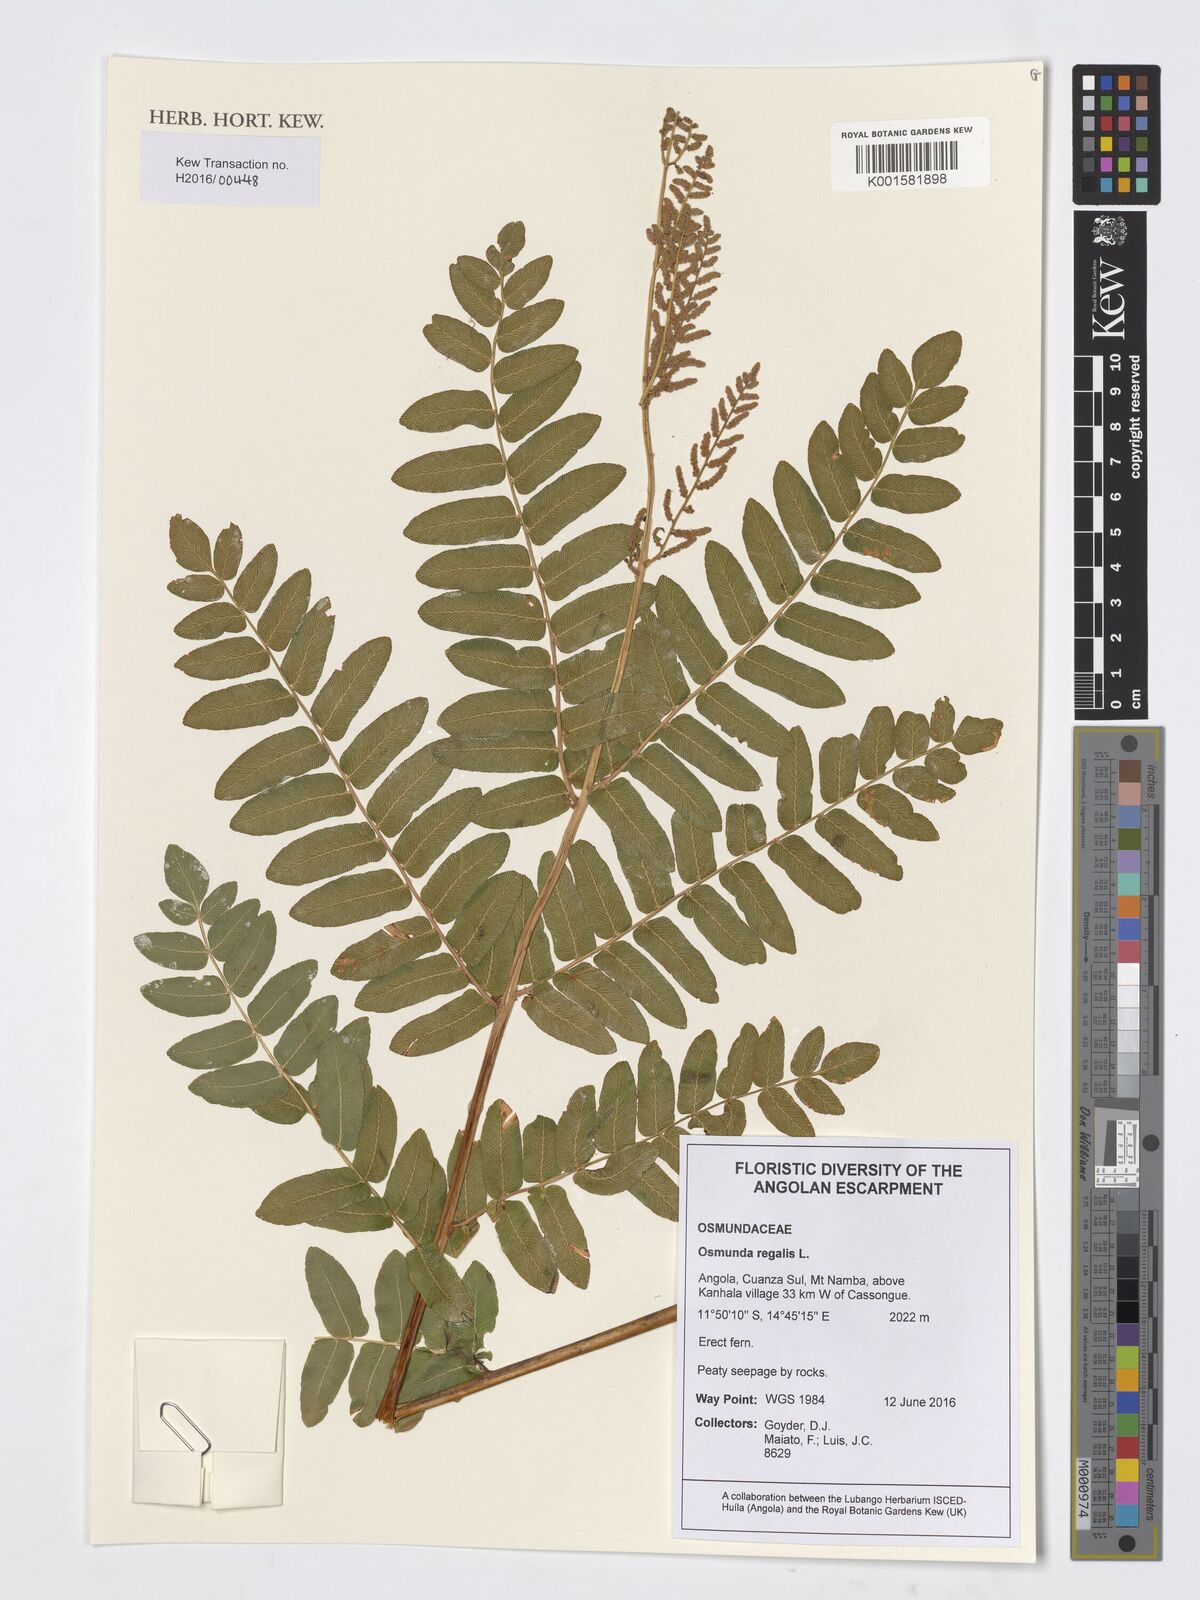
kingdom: Plantae
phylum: Tracheophyta
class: Polypodiopsida
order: Osmundales
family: Osmundaceae
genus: Osmunda
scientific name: Osmunda regalis
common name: Royal fern
